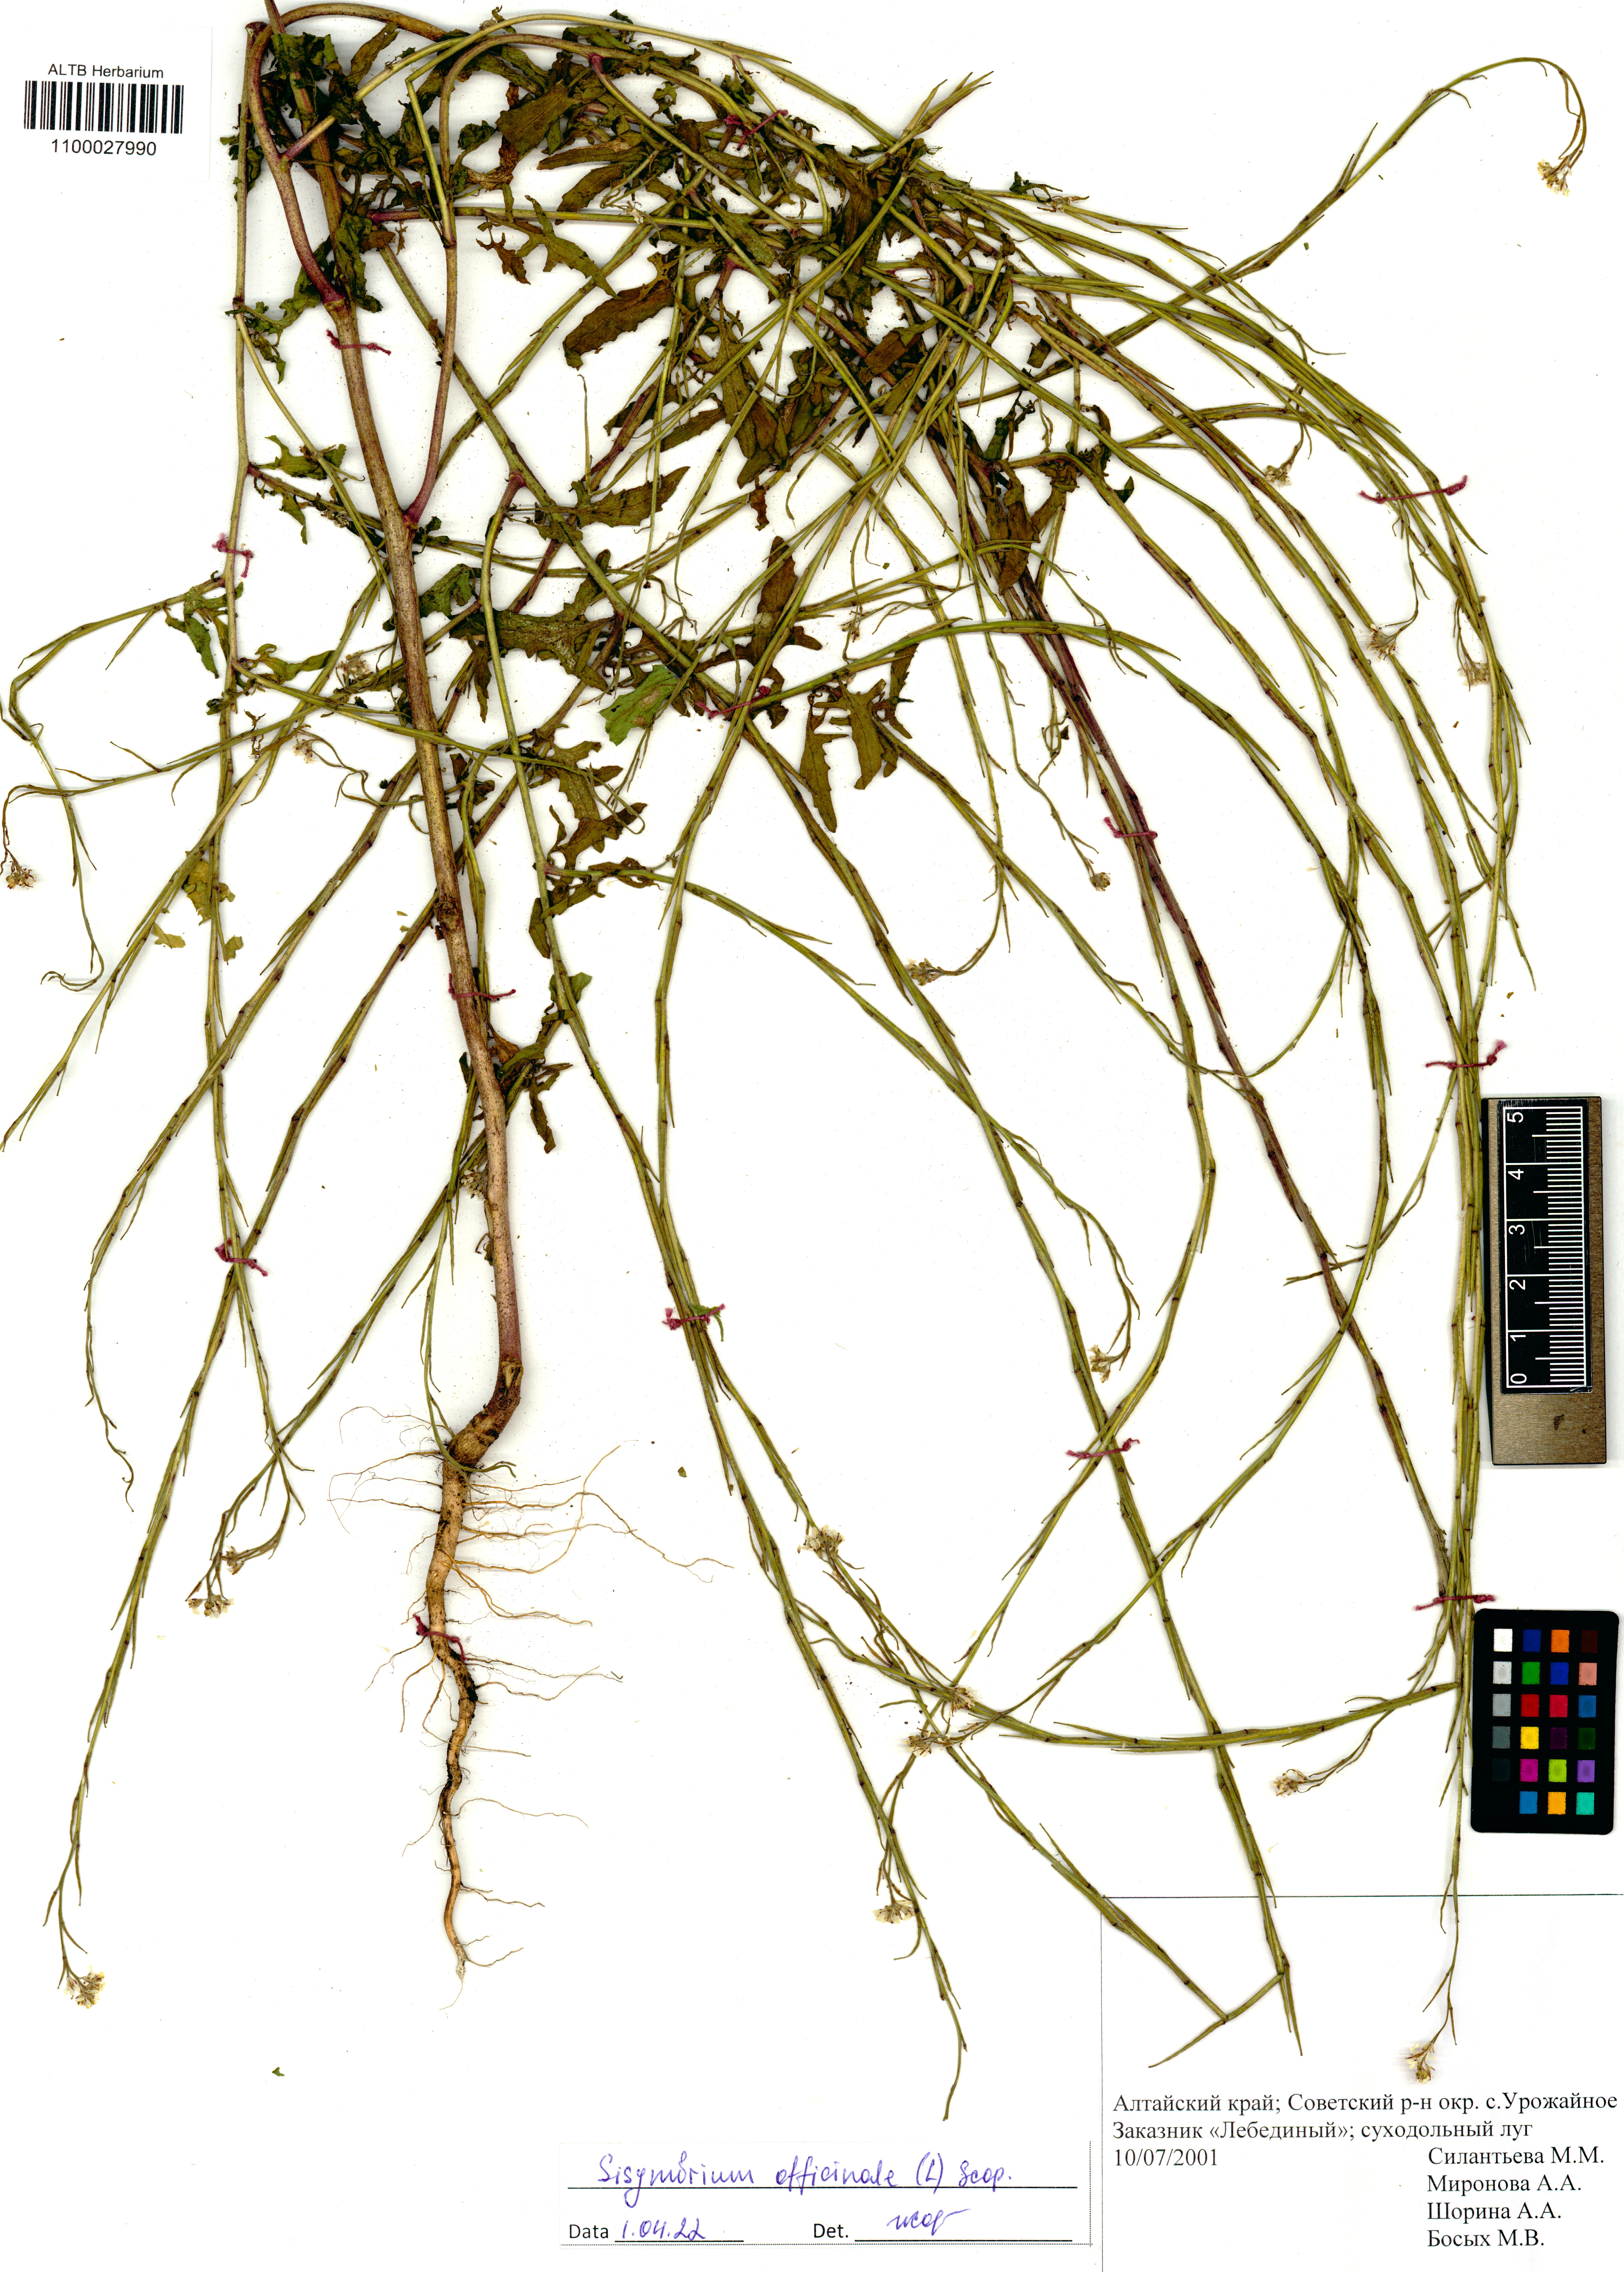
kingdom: Plantae
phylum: Tracheophyta
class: Magnoliopsida
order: Brassicales
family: Brassicaceae
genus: Sisymbrium
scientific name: Sisymbrium officinale
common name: Hedge mustard
